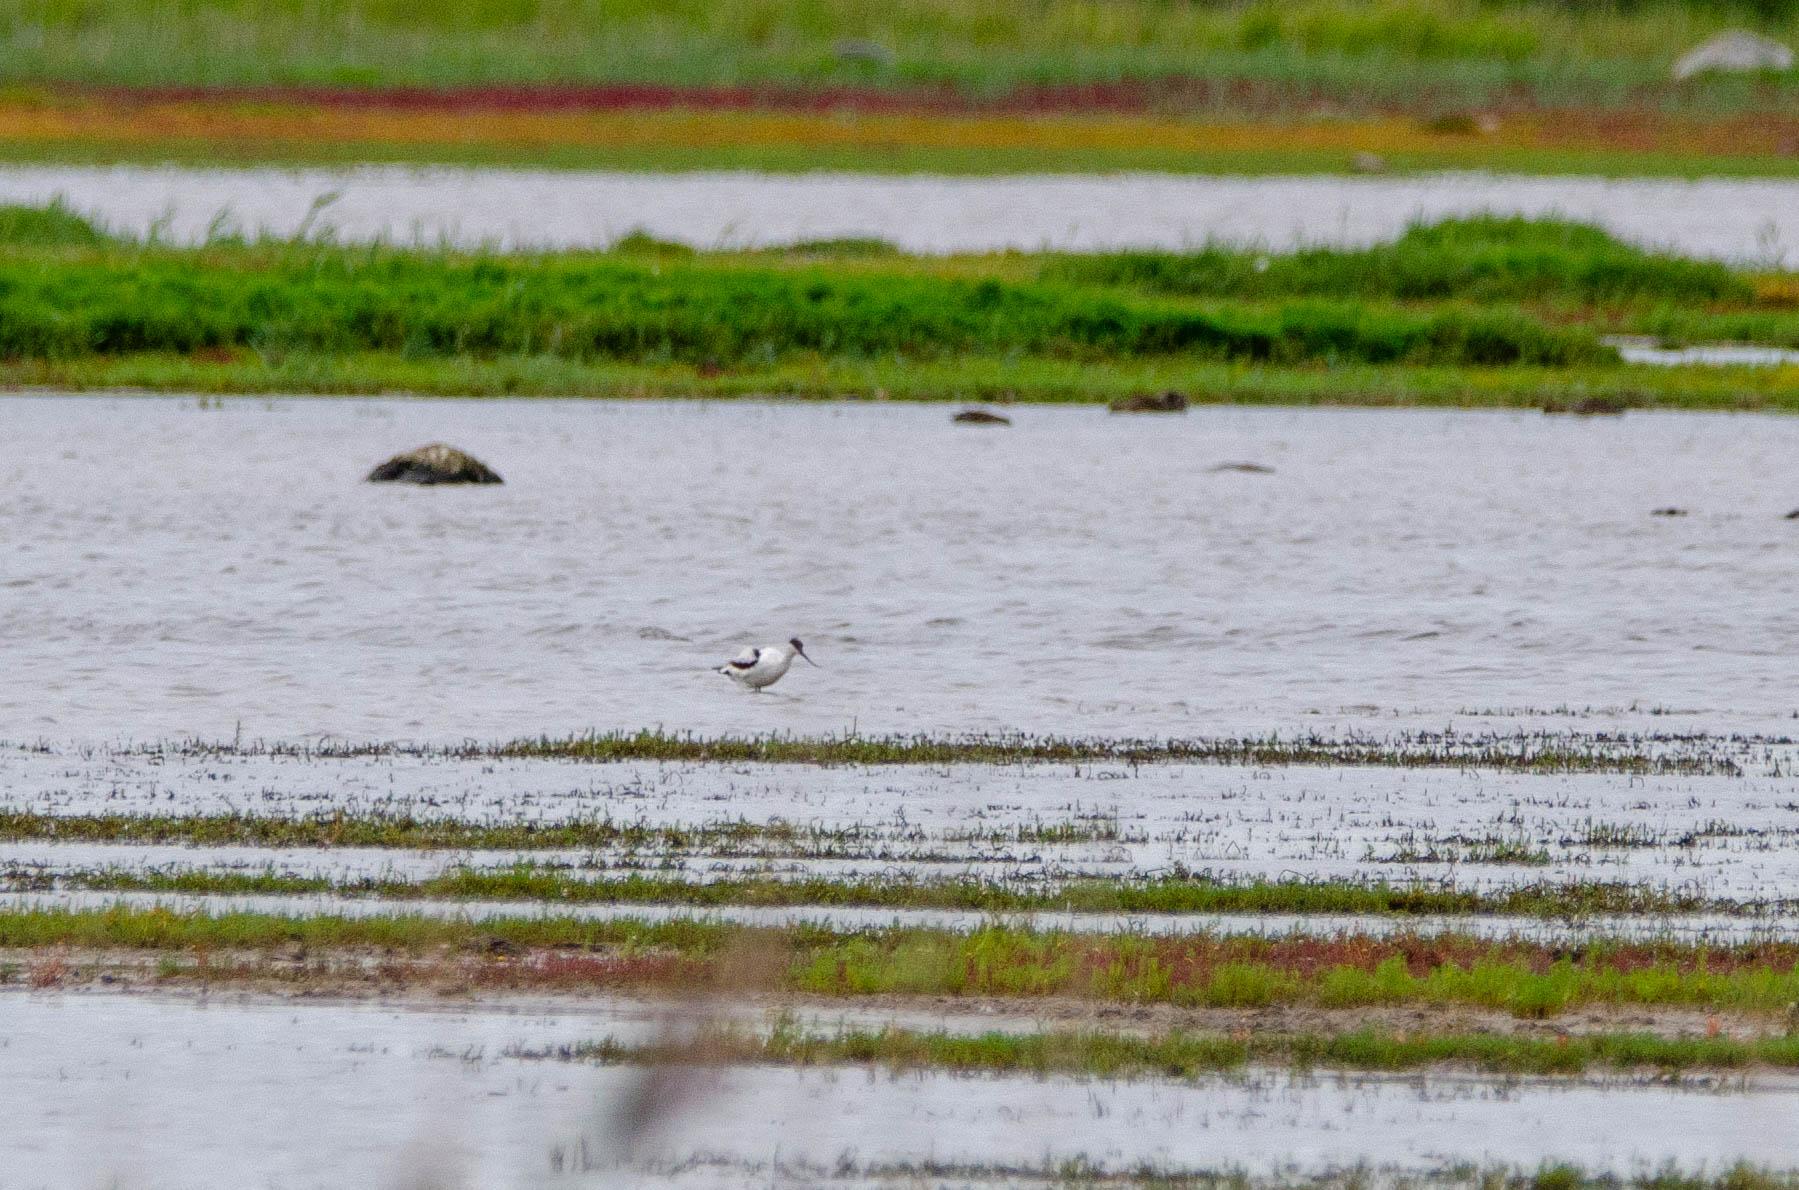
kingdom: Animalia
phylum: Chordata
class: Aves
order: Charadriiformes
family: Recurvirostridae
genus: Recurvirostra
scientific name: Recurvirostra avosetta
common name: Klyde
